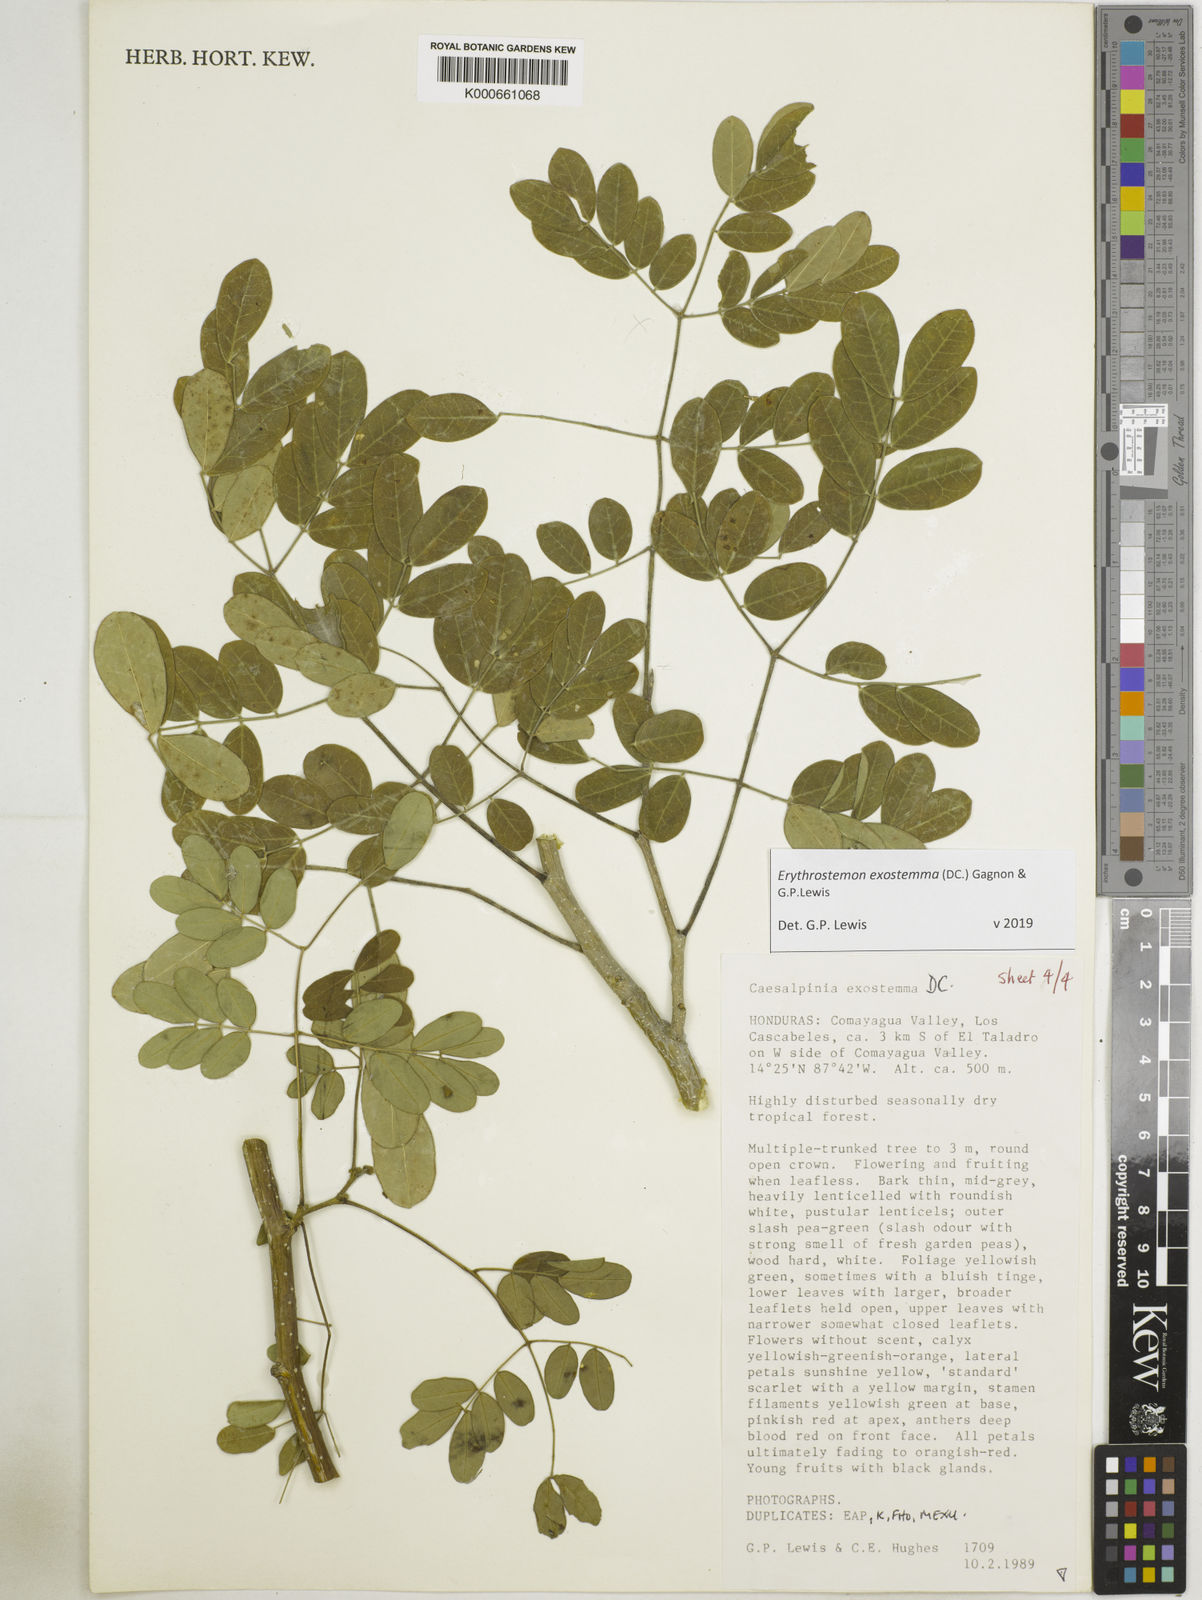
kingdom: Plantae
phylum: Tracheophyta
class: Magnoliopsida
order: Fabales
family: Fabaceae
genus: Erythrostemon
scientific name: Erythrostemon exostemma
